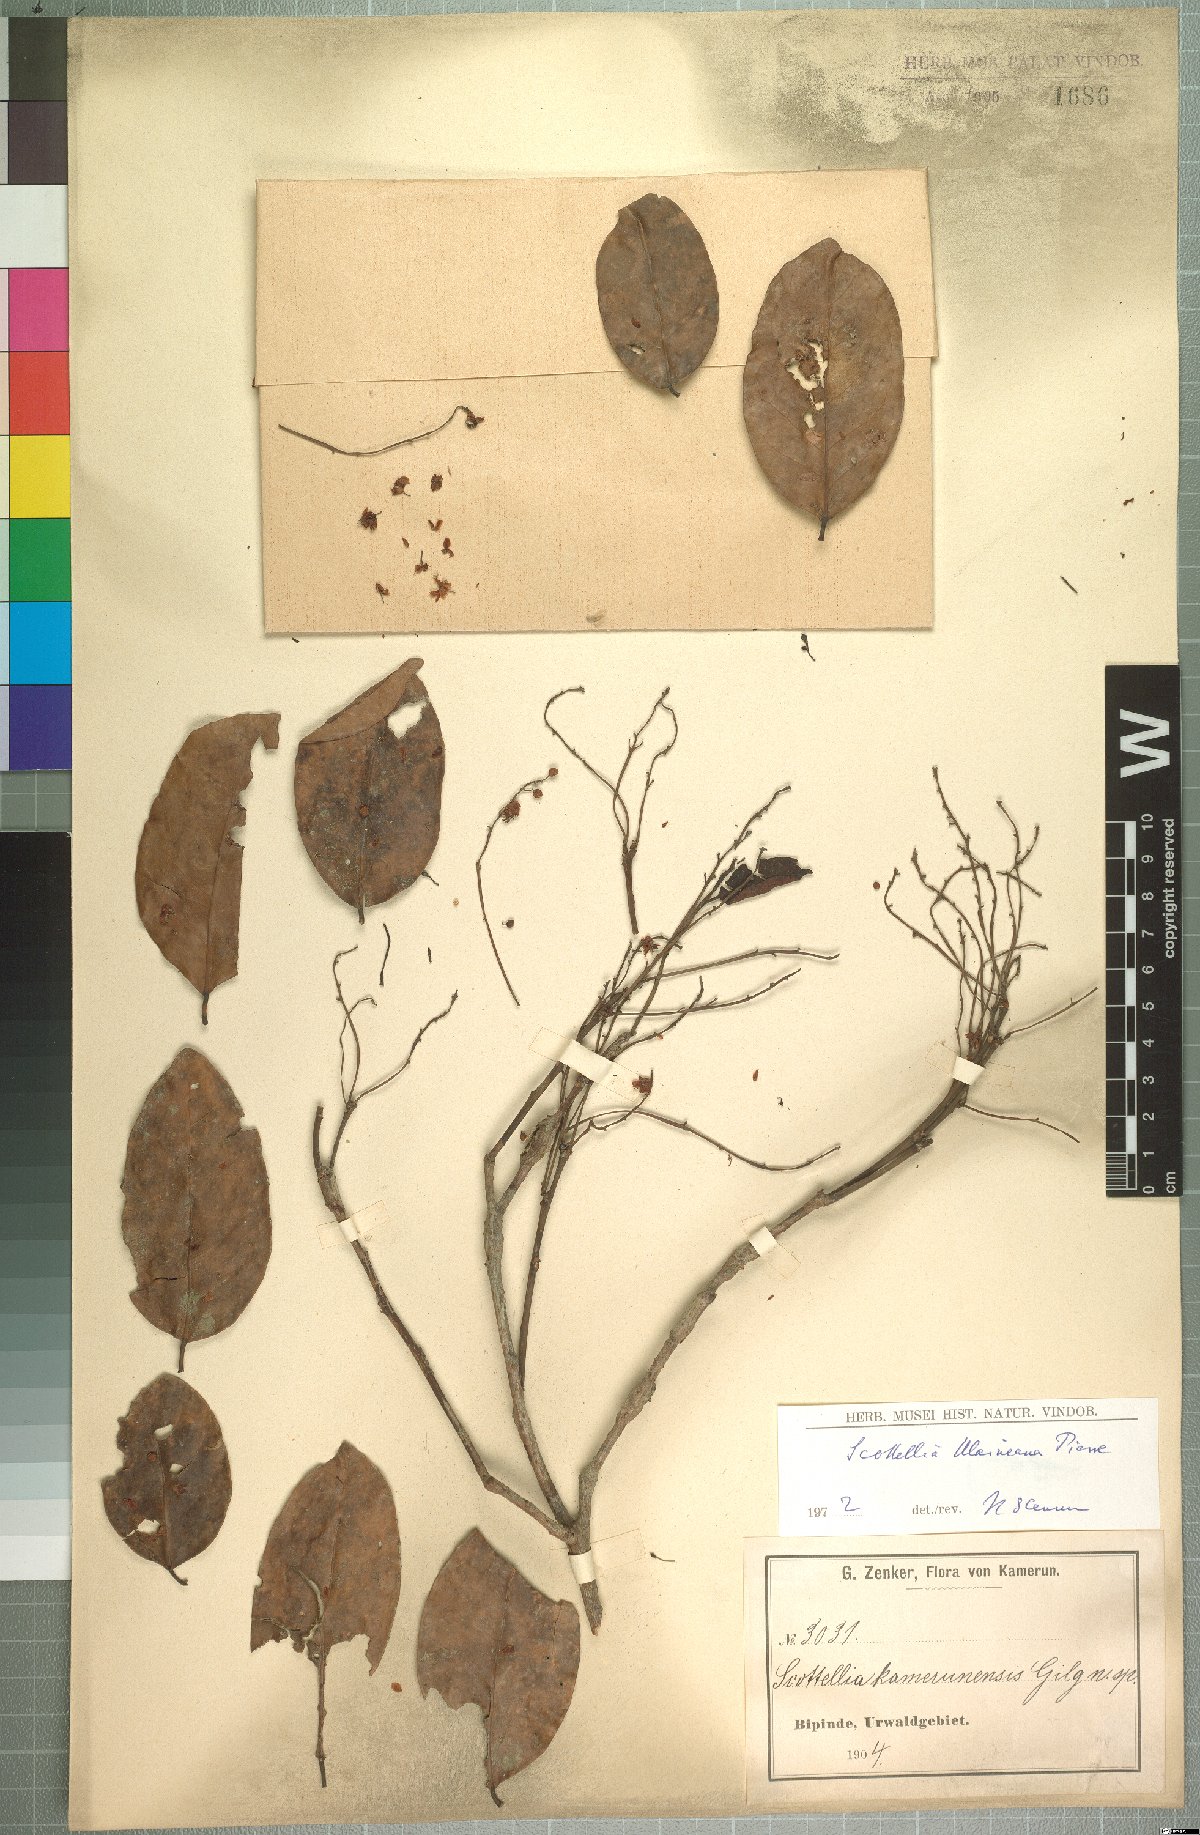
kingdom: Plantae
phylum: Tracheophyta
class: Magnoliopsida
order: Malpighiales
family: Achariaceae
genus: Scottellia
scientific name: Scottellia klaineana
